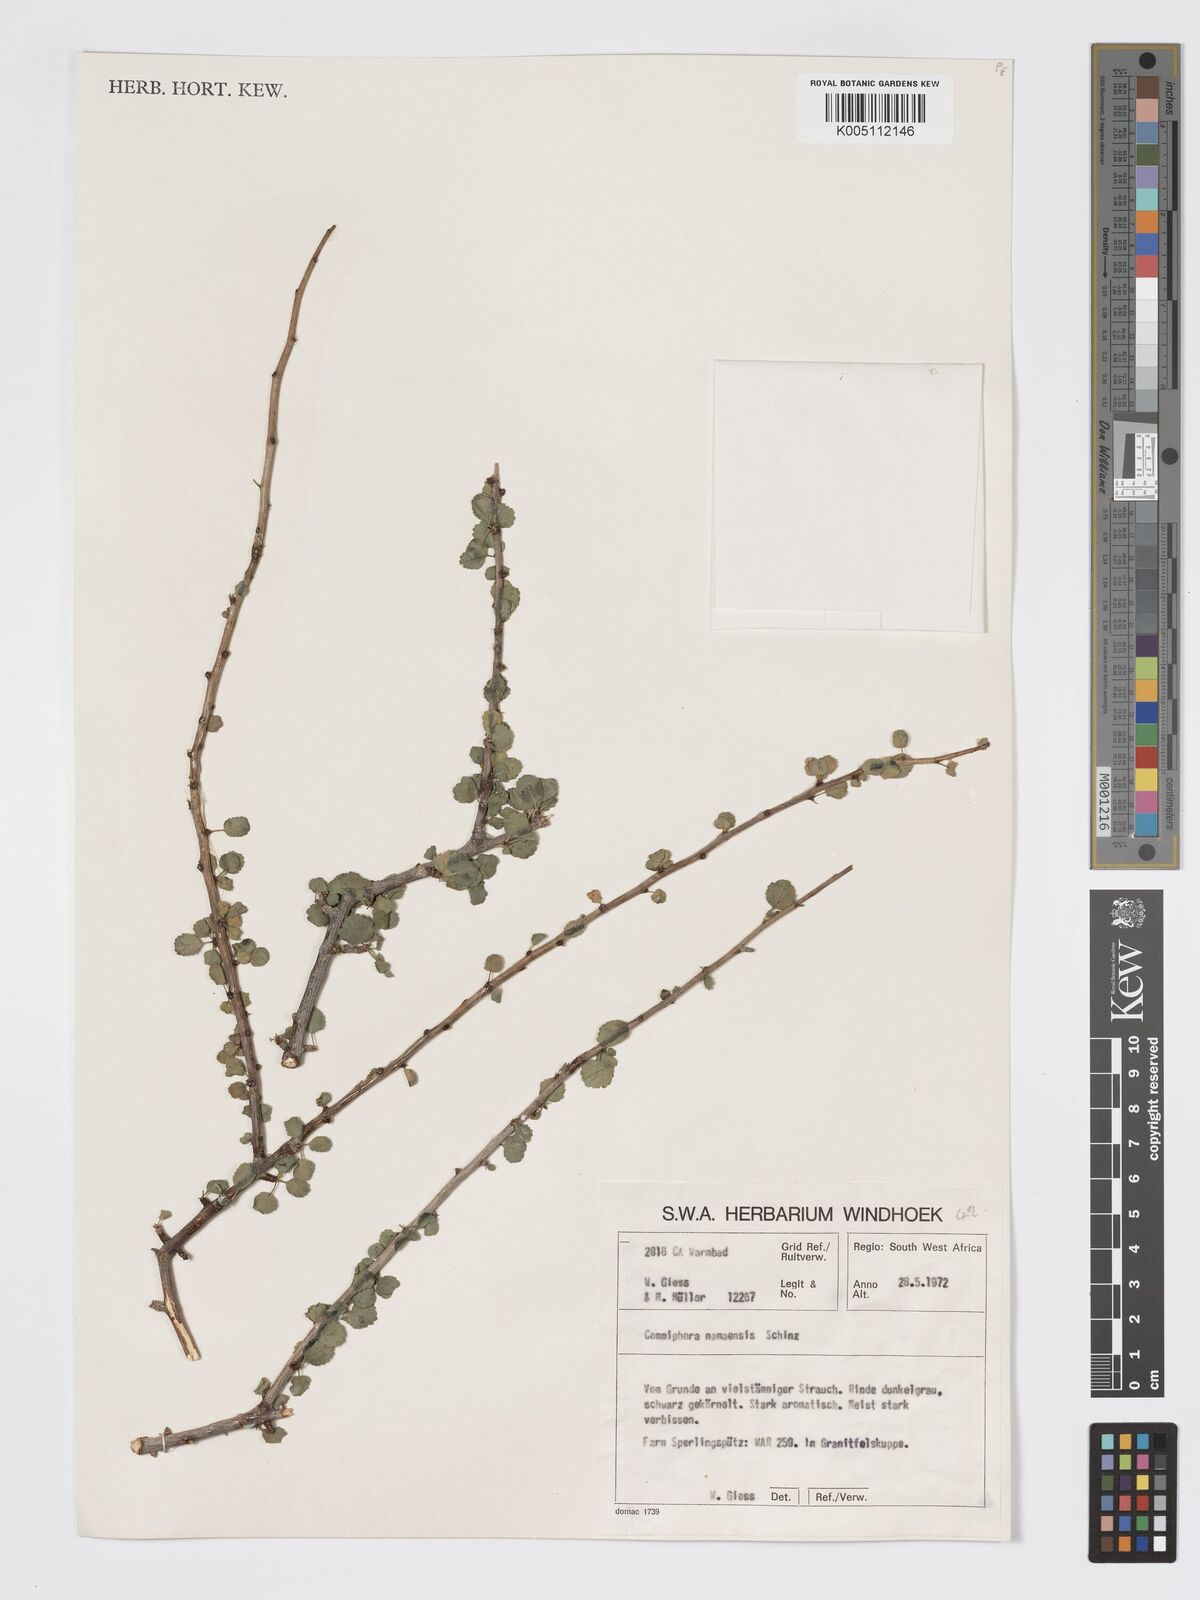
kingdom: Plantae
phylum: Tracheophyta
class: Magnoliopsida
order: Sapindales
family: Burseraceae
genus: Commiphora
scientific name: Commiphora namaensis
